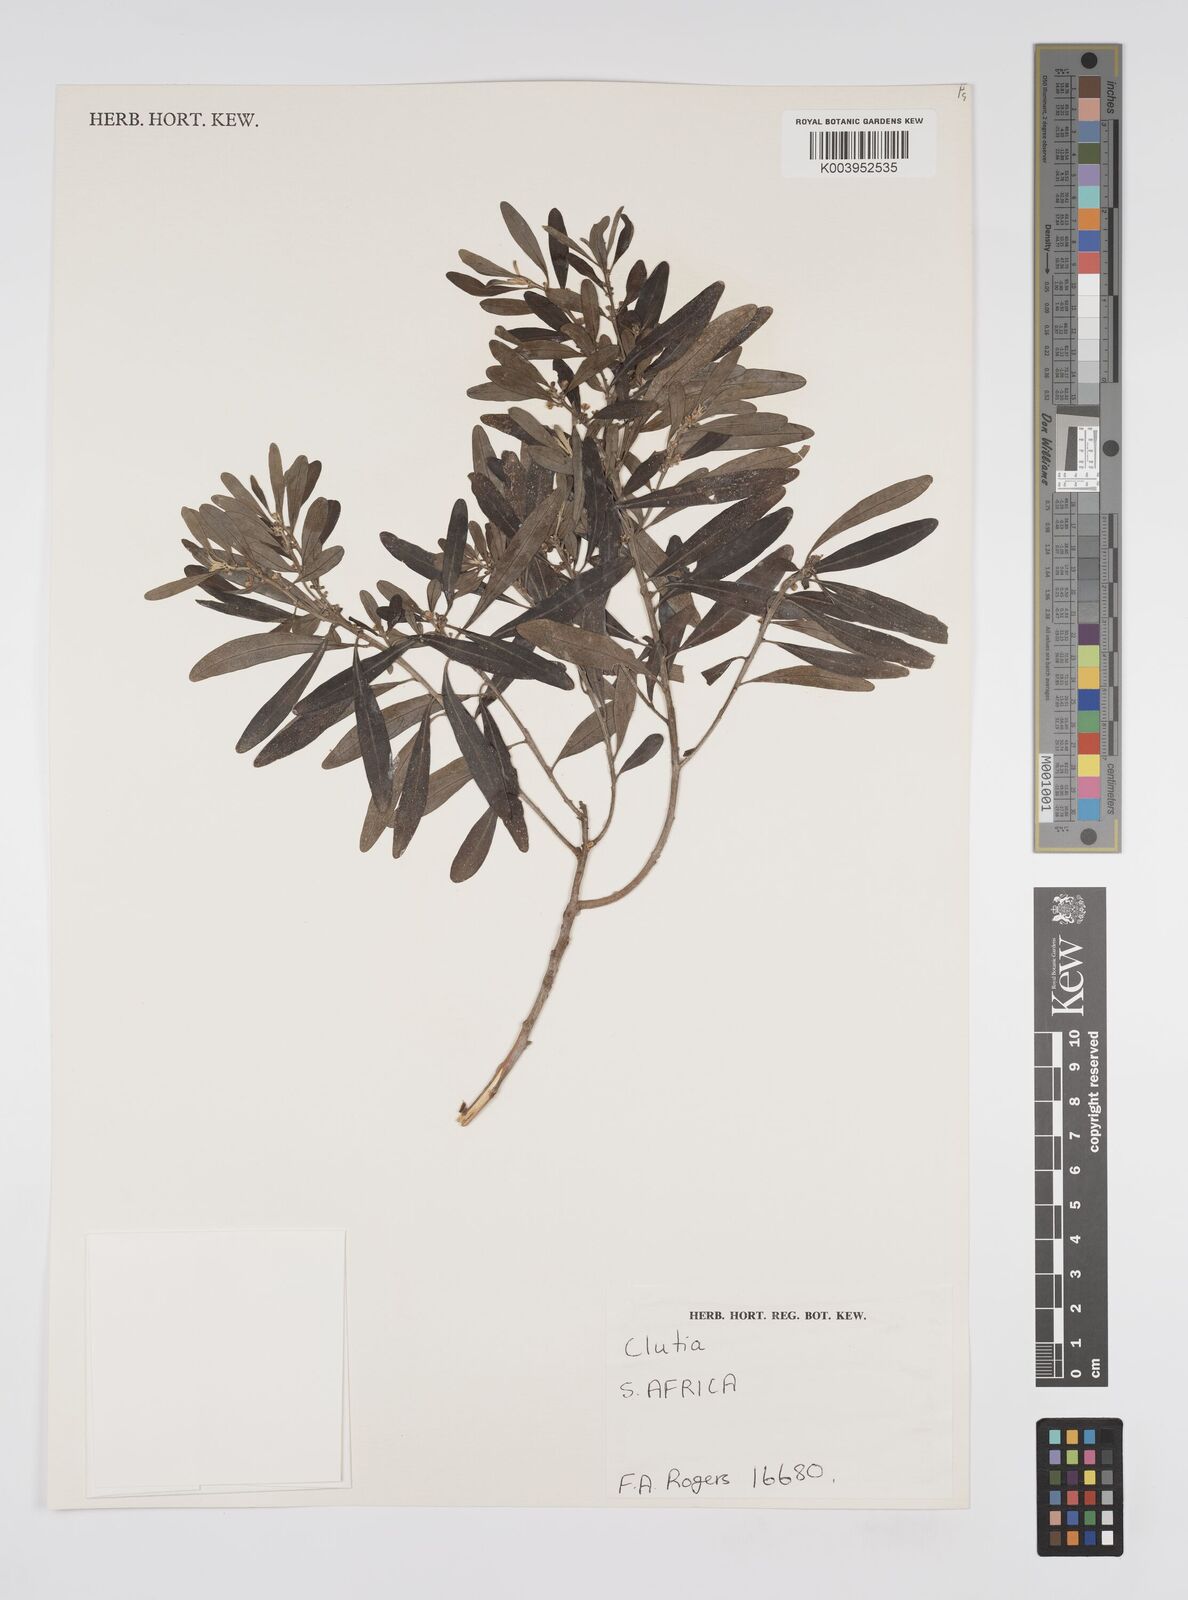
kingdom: Plantae
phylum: Tracheophyta
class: Magnoliopsida
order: Malpighiales
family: Peraceae
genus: Clutia
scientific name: Clutia
